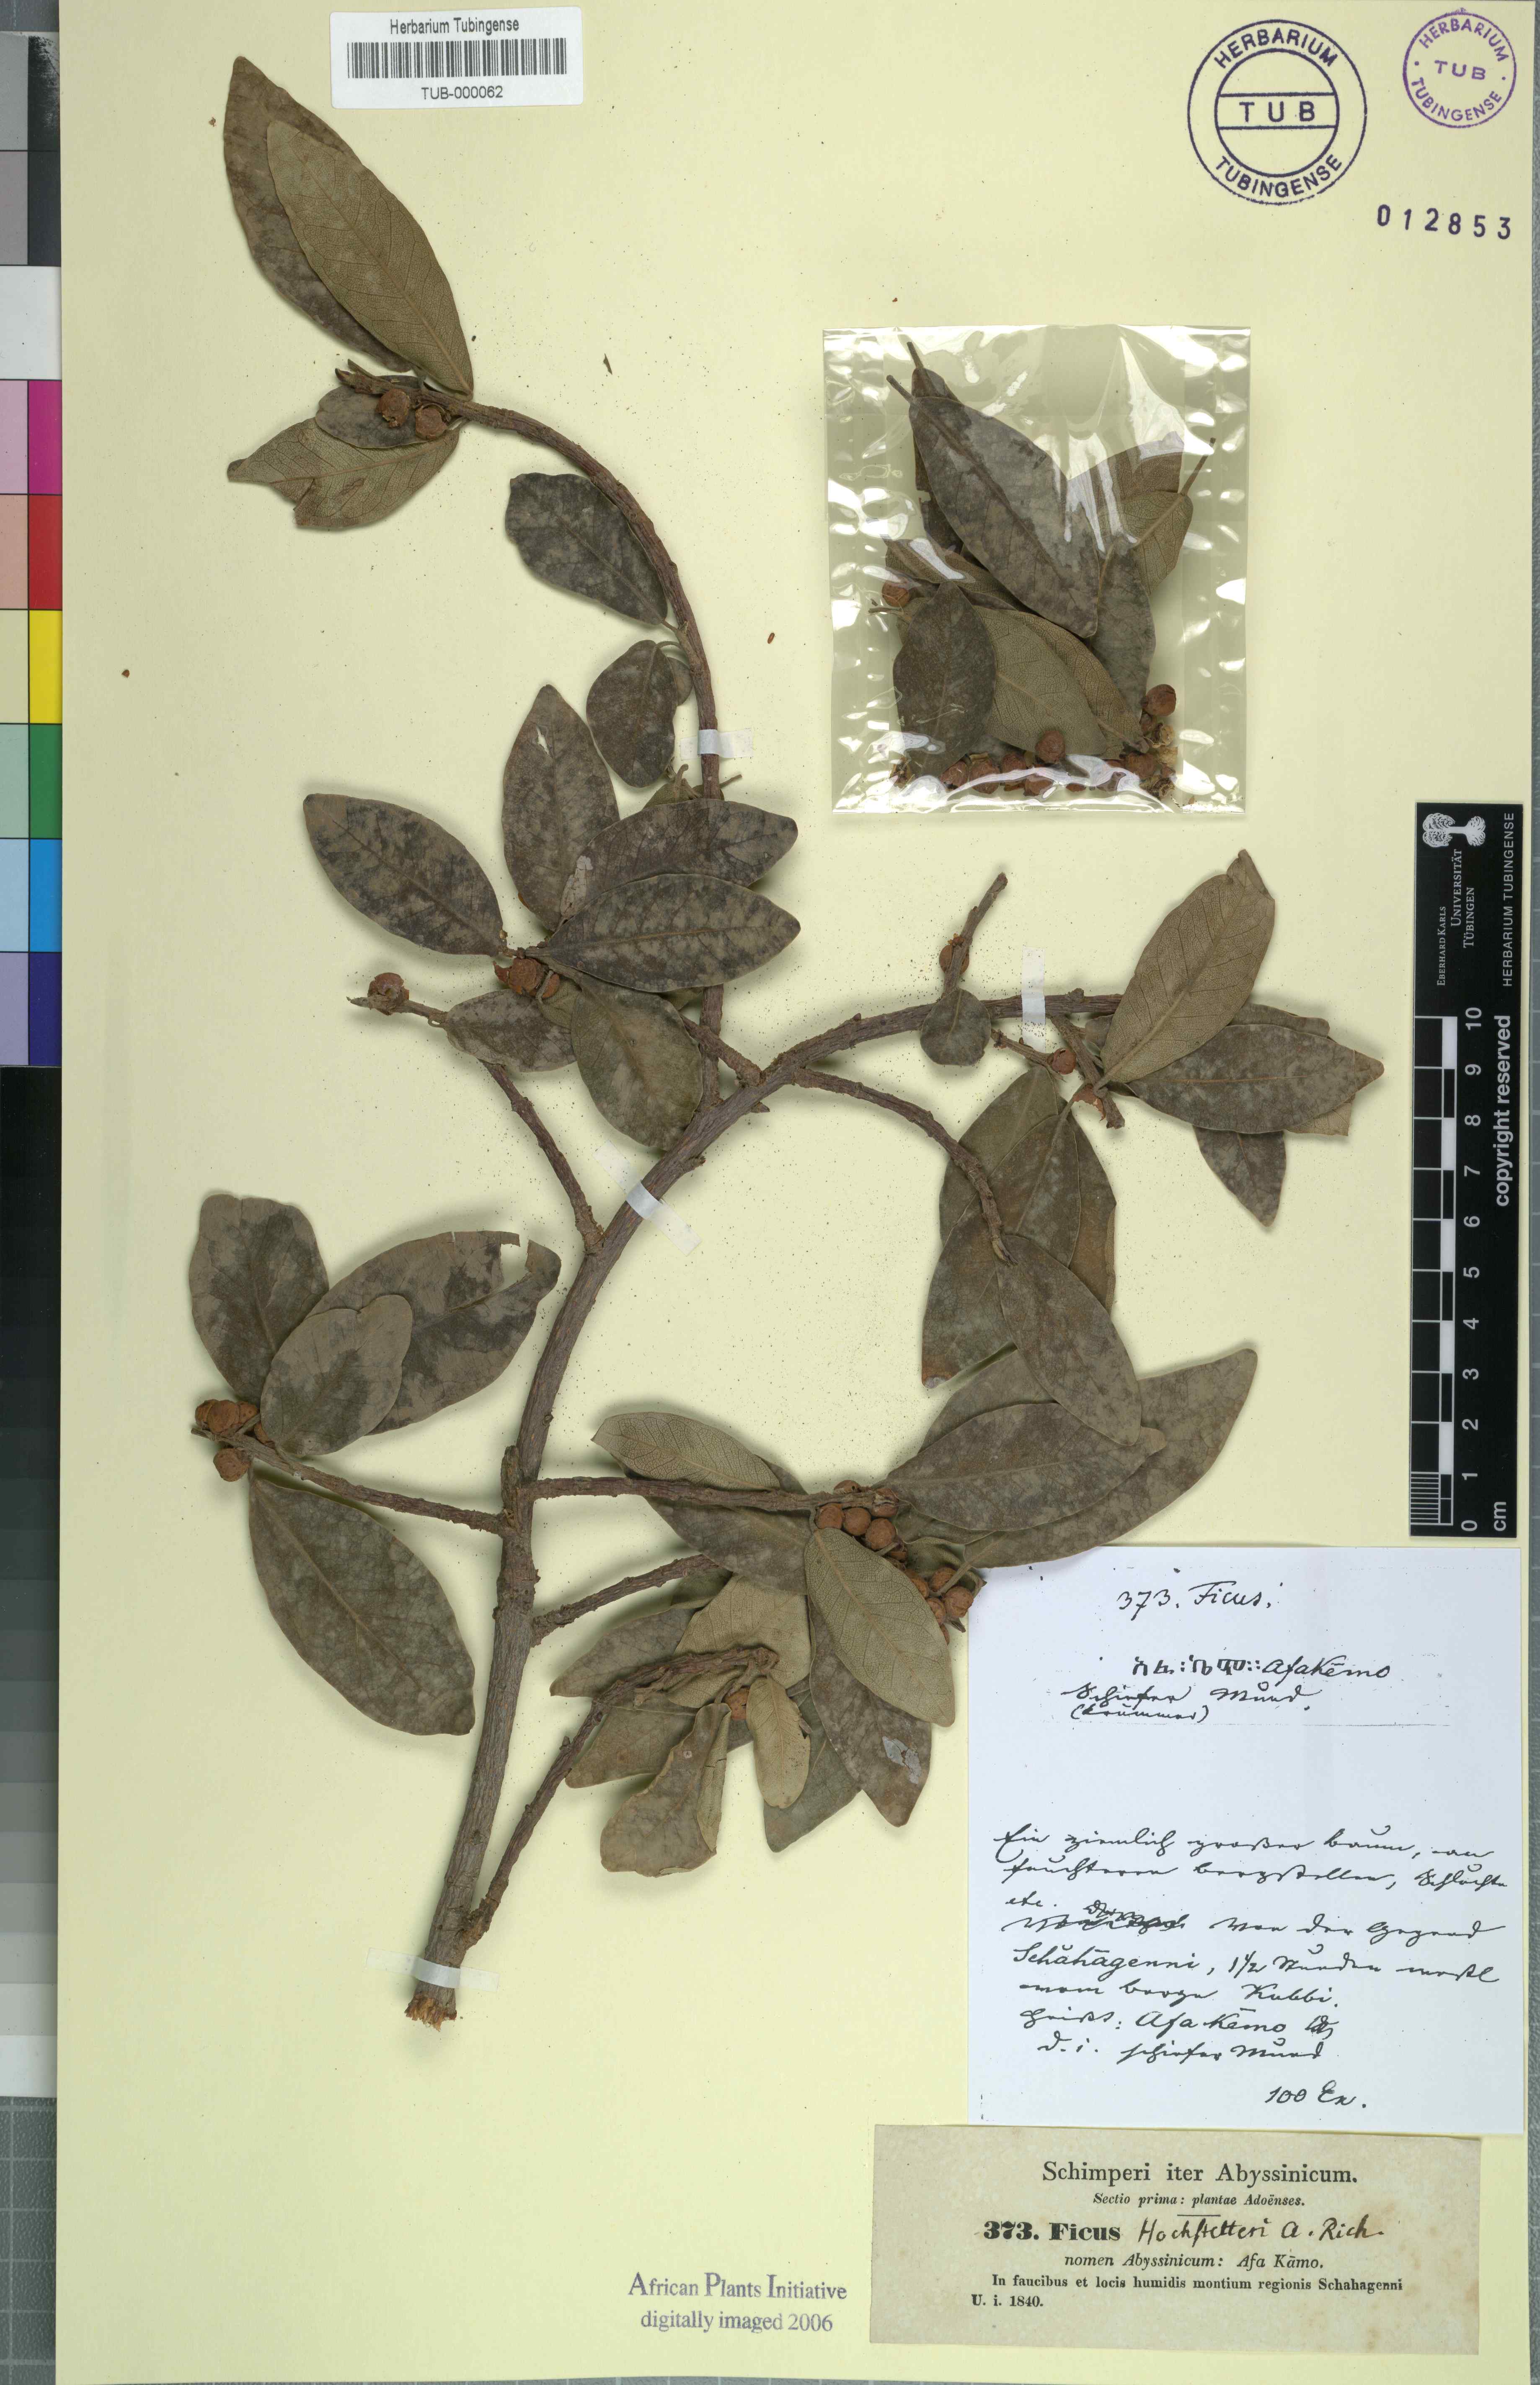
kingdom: Plantae
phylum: Tracheophyta
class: Magnoliopsida
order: Rosales
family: Moraceae
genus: Ficus
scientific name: Ficus thonningii
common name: Fig
